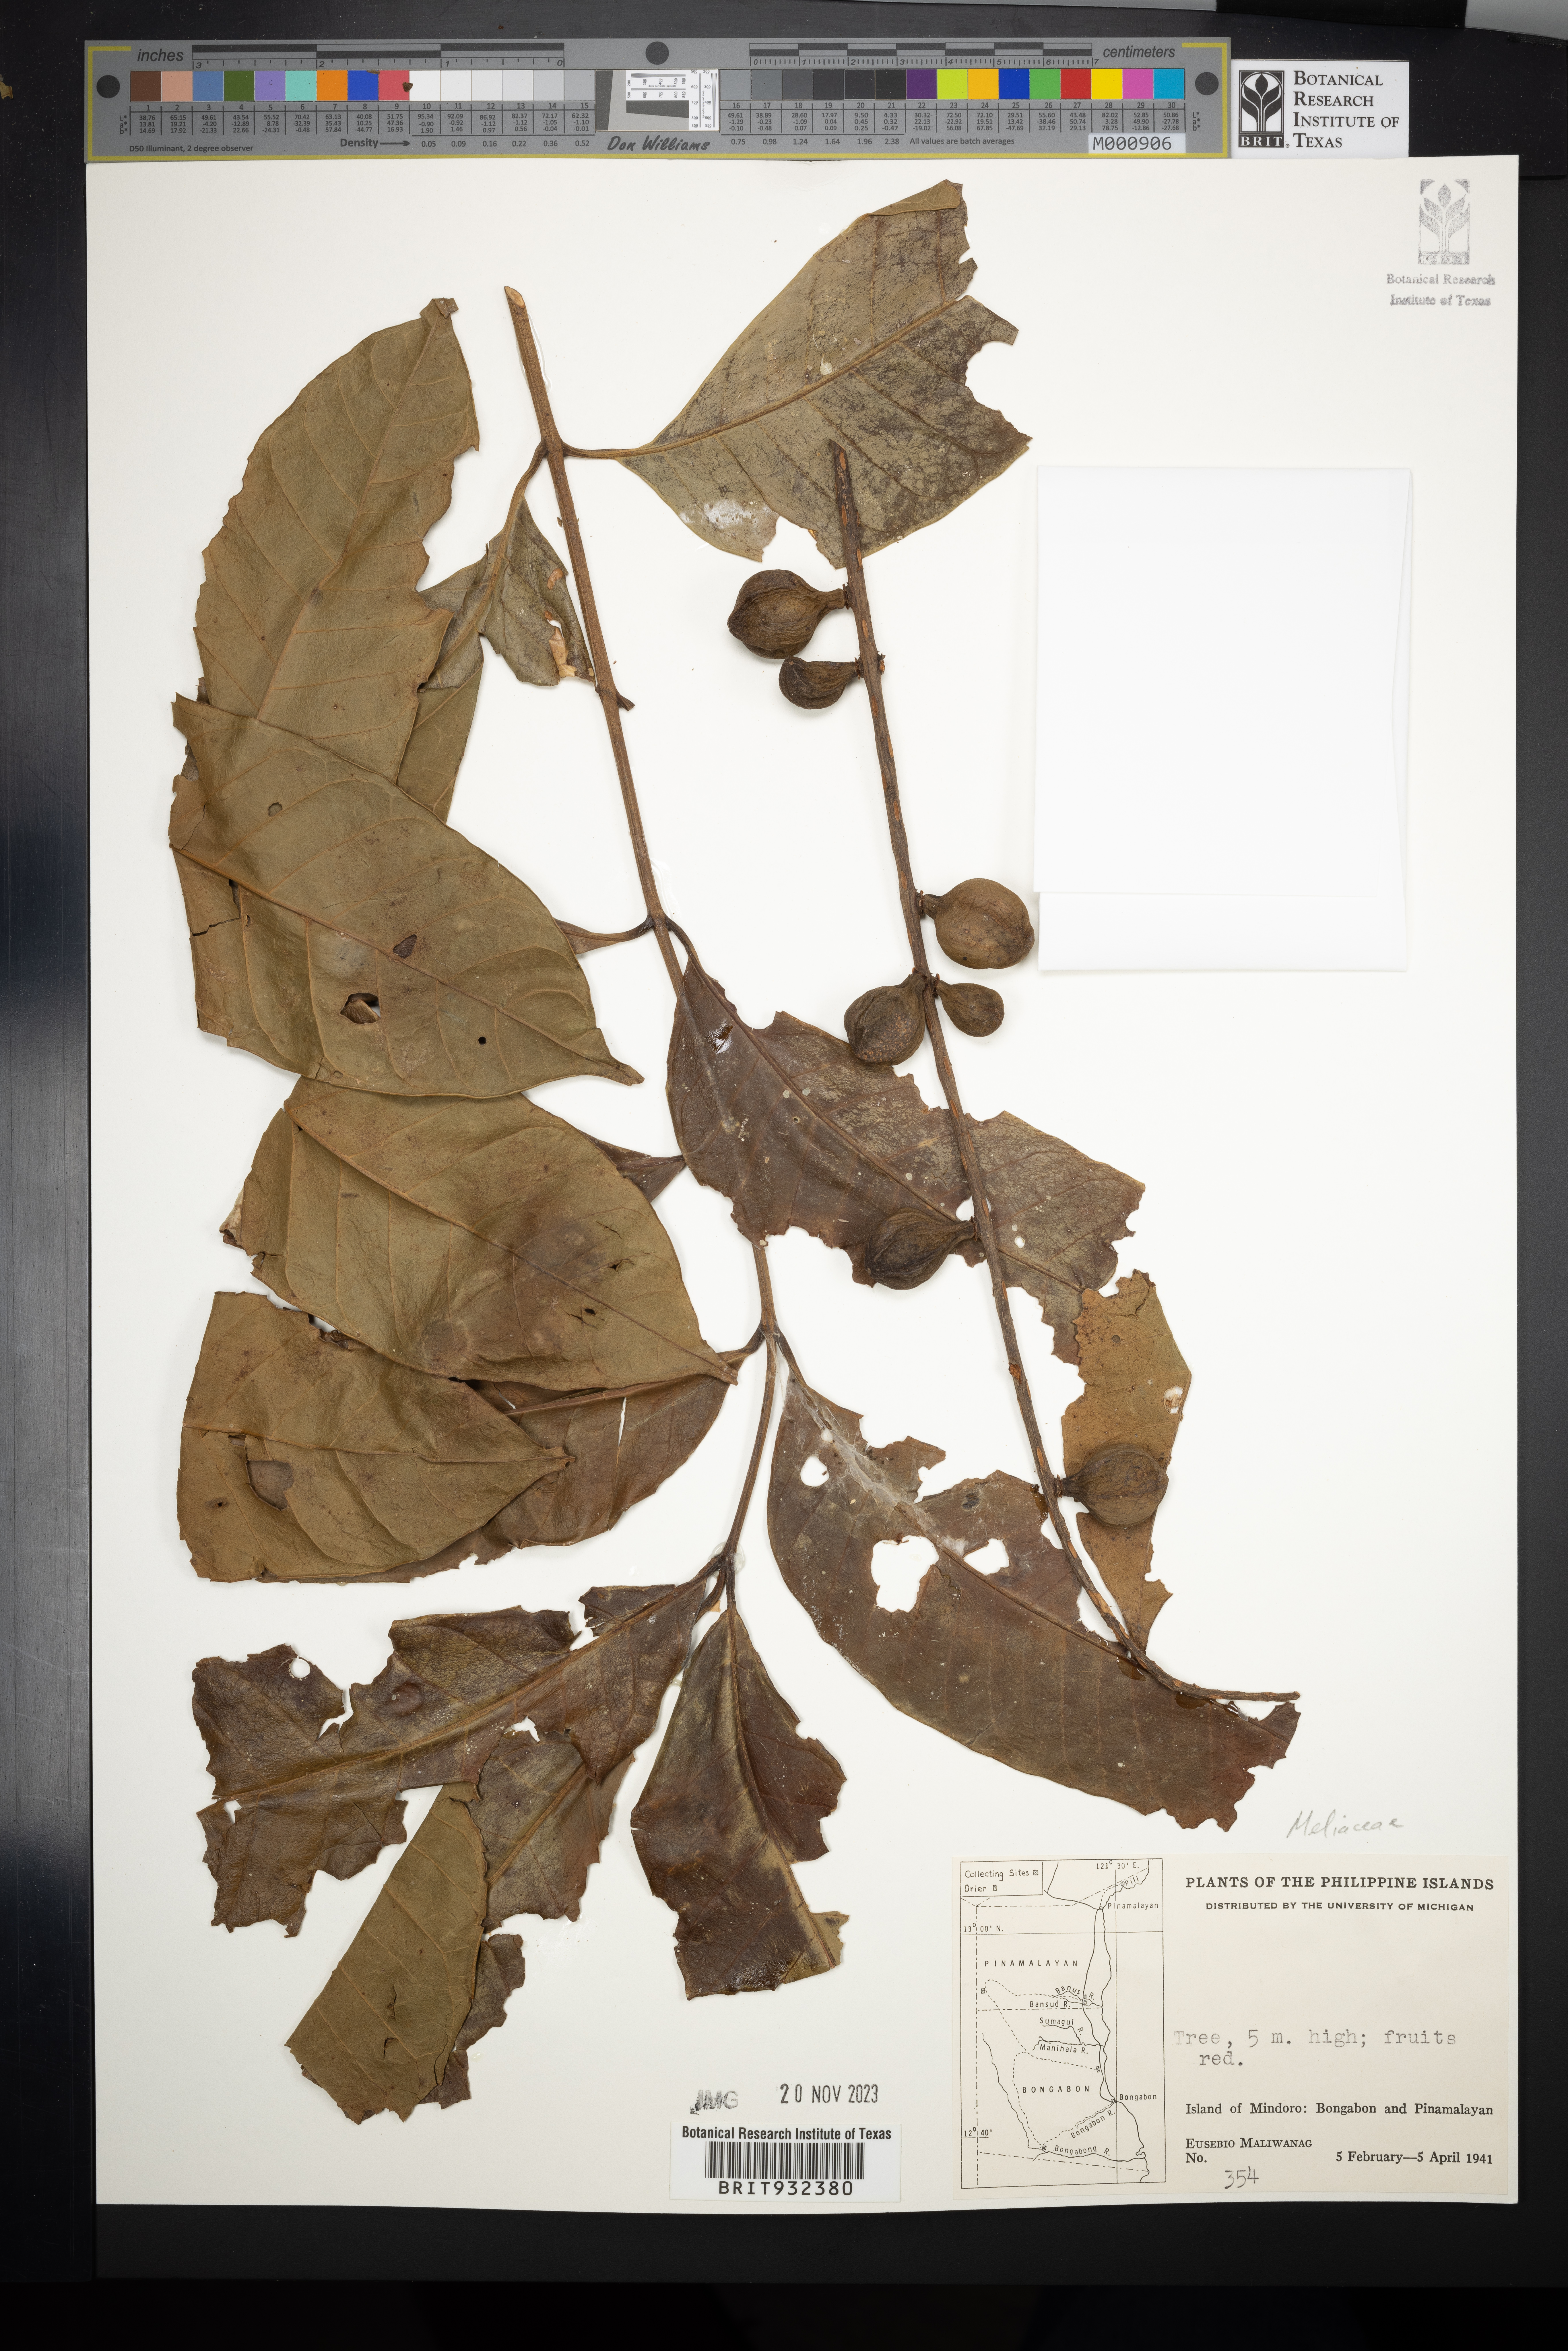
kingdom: Plantae
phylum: Tracheophyta
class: Magnoliopsida
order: Sapindales
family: Meliaceae
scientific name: Meliaceae
